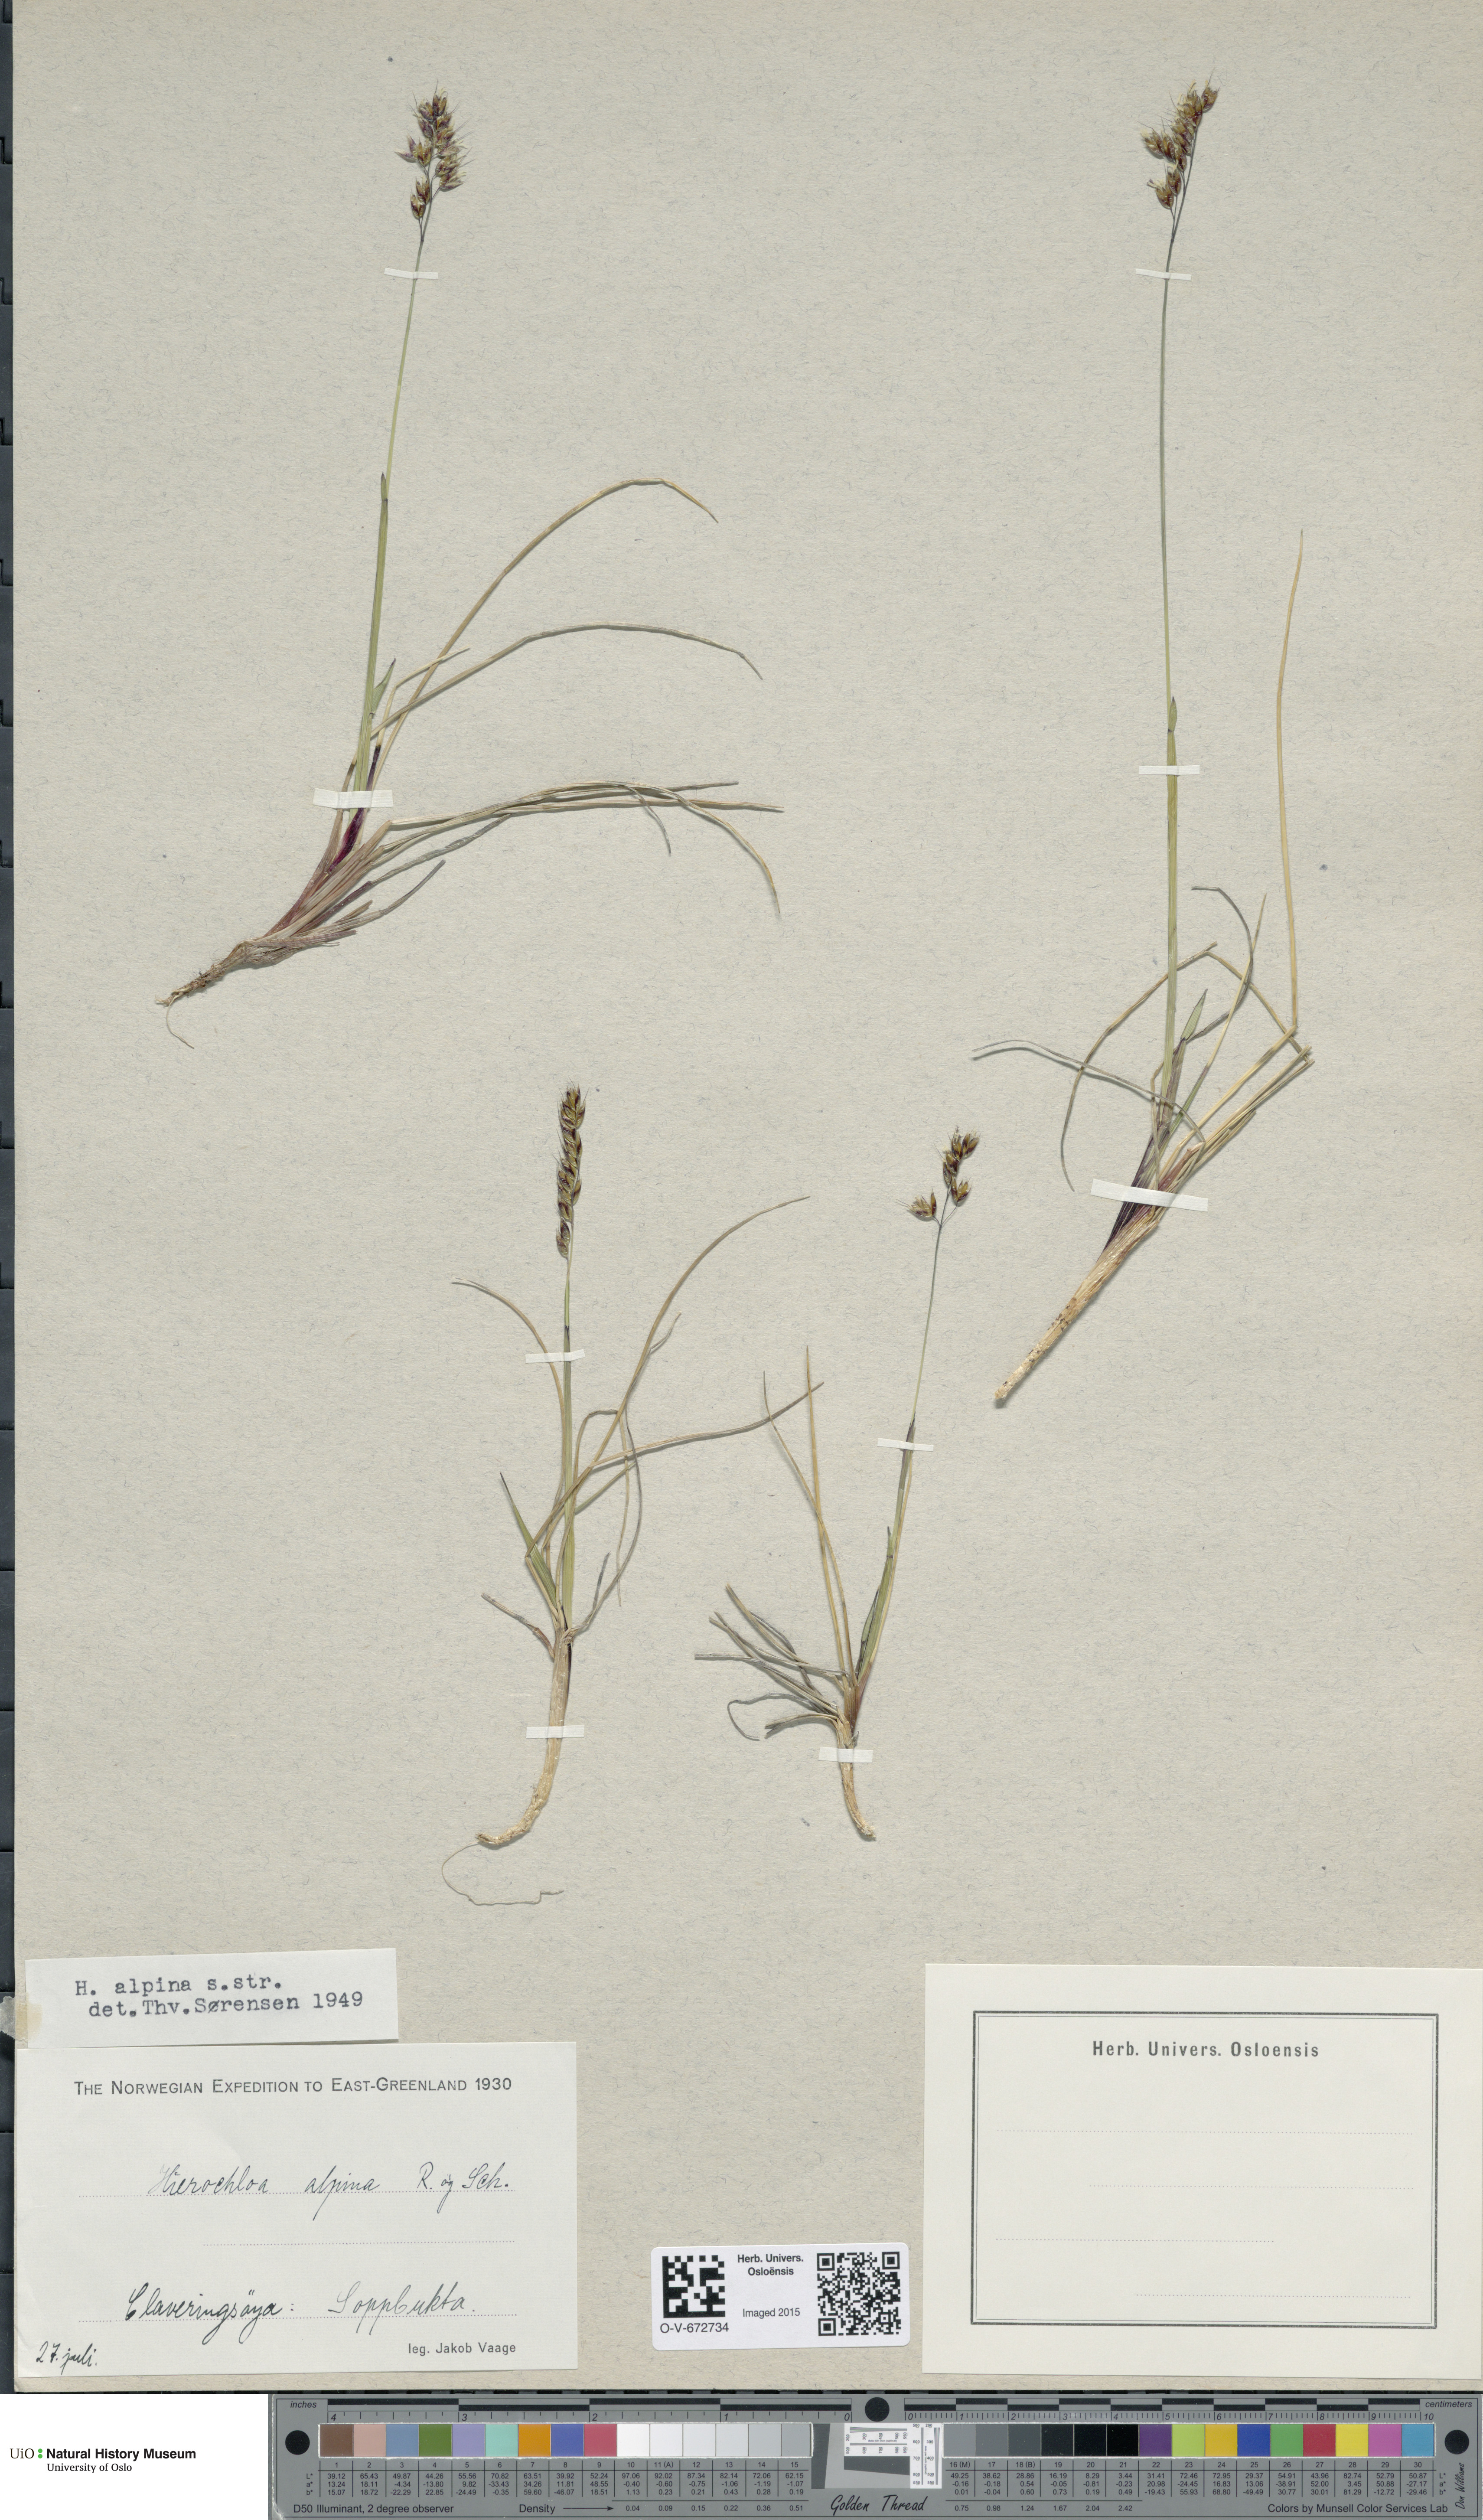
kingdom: Plantae
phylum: Tracheophyta
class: Liliopsida
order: Poales
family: Poaceae
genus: Anthoxanthum
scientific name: Anthoxanthum monticola
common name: Alpine sweetgrass
